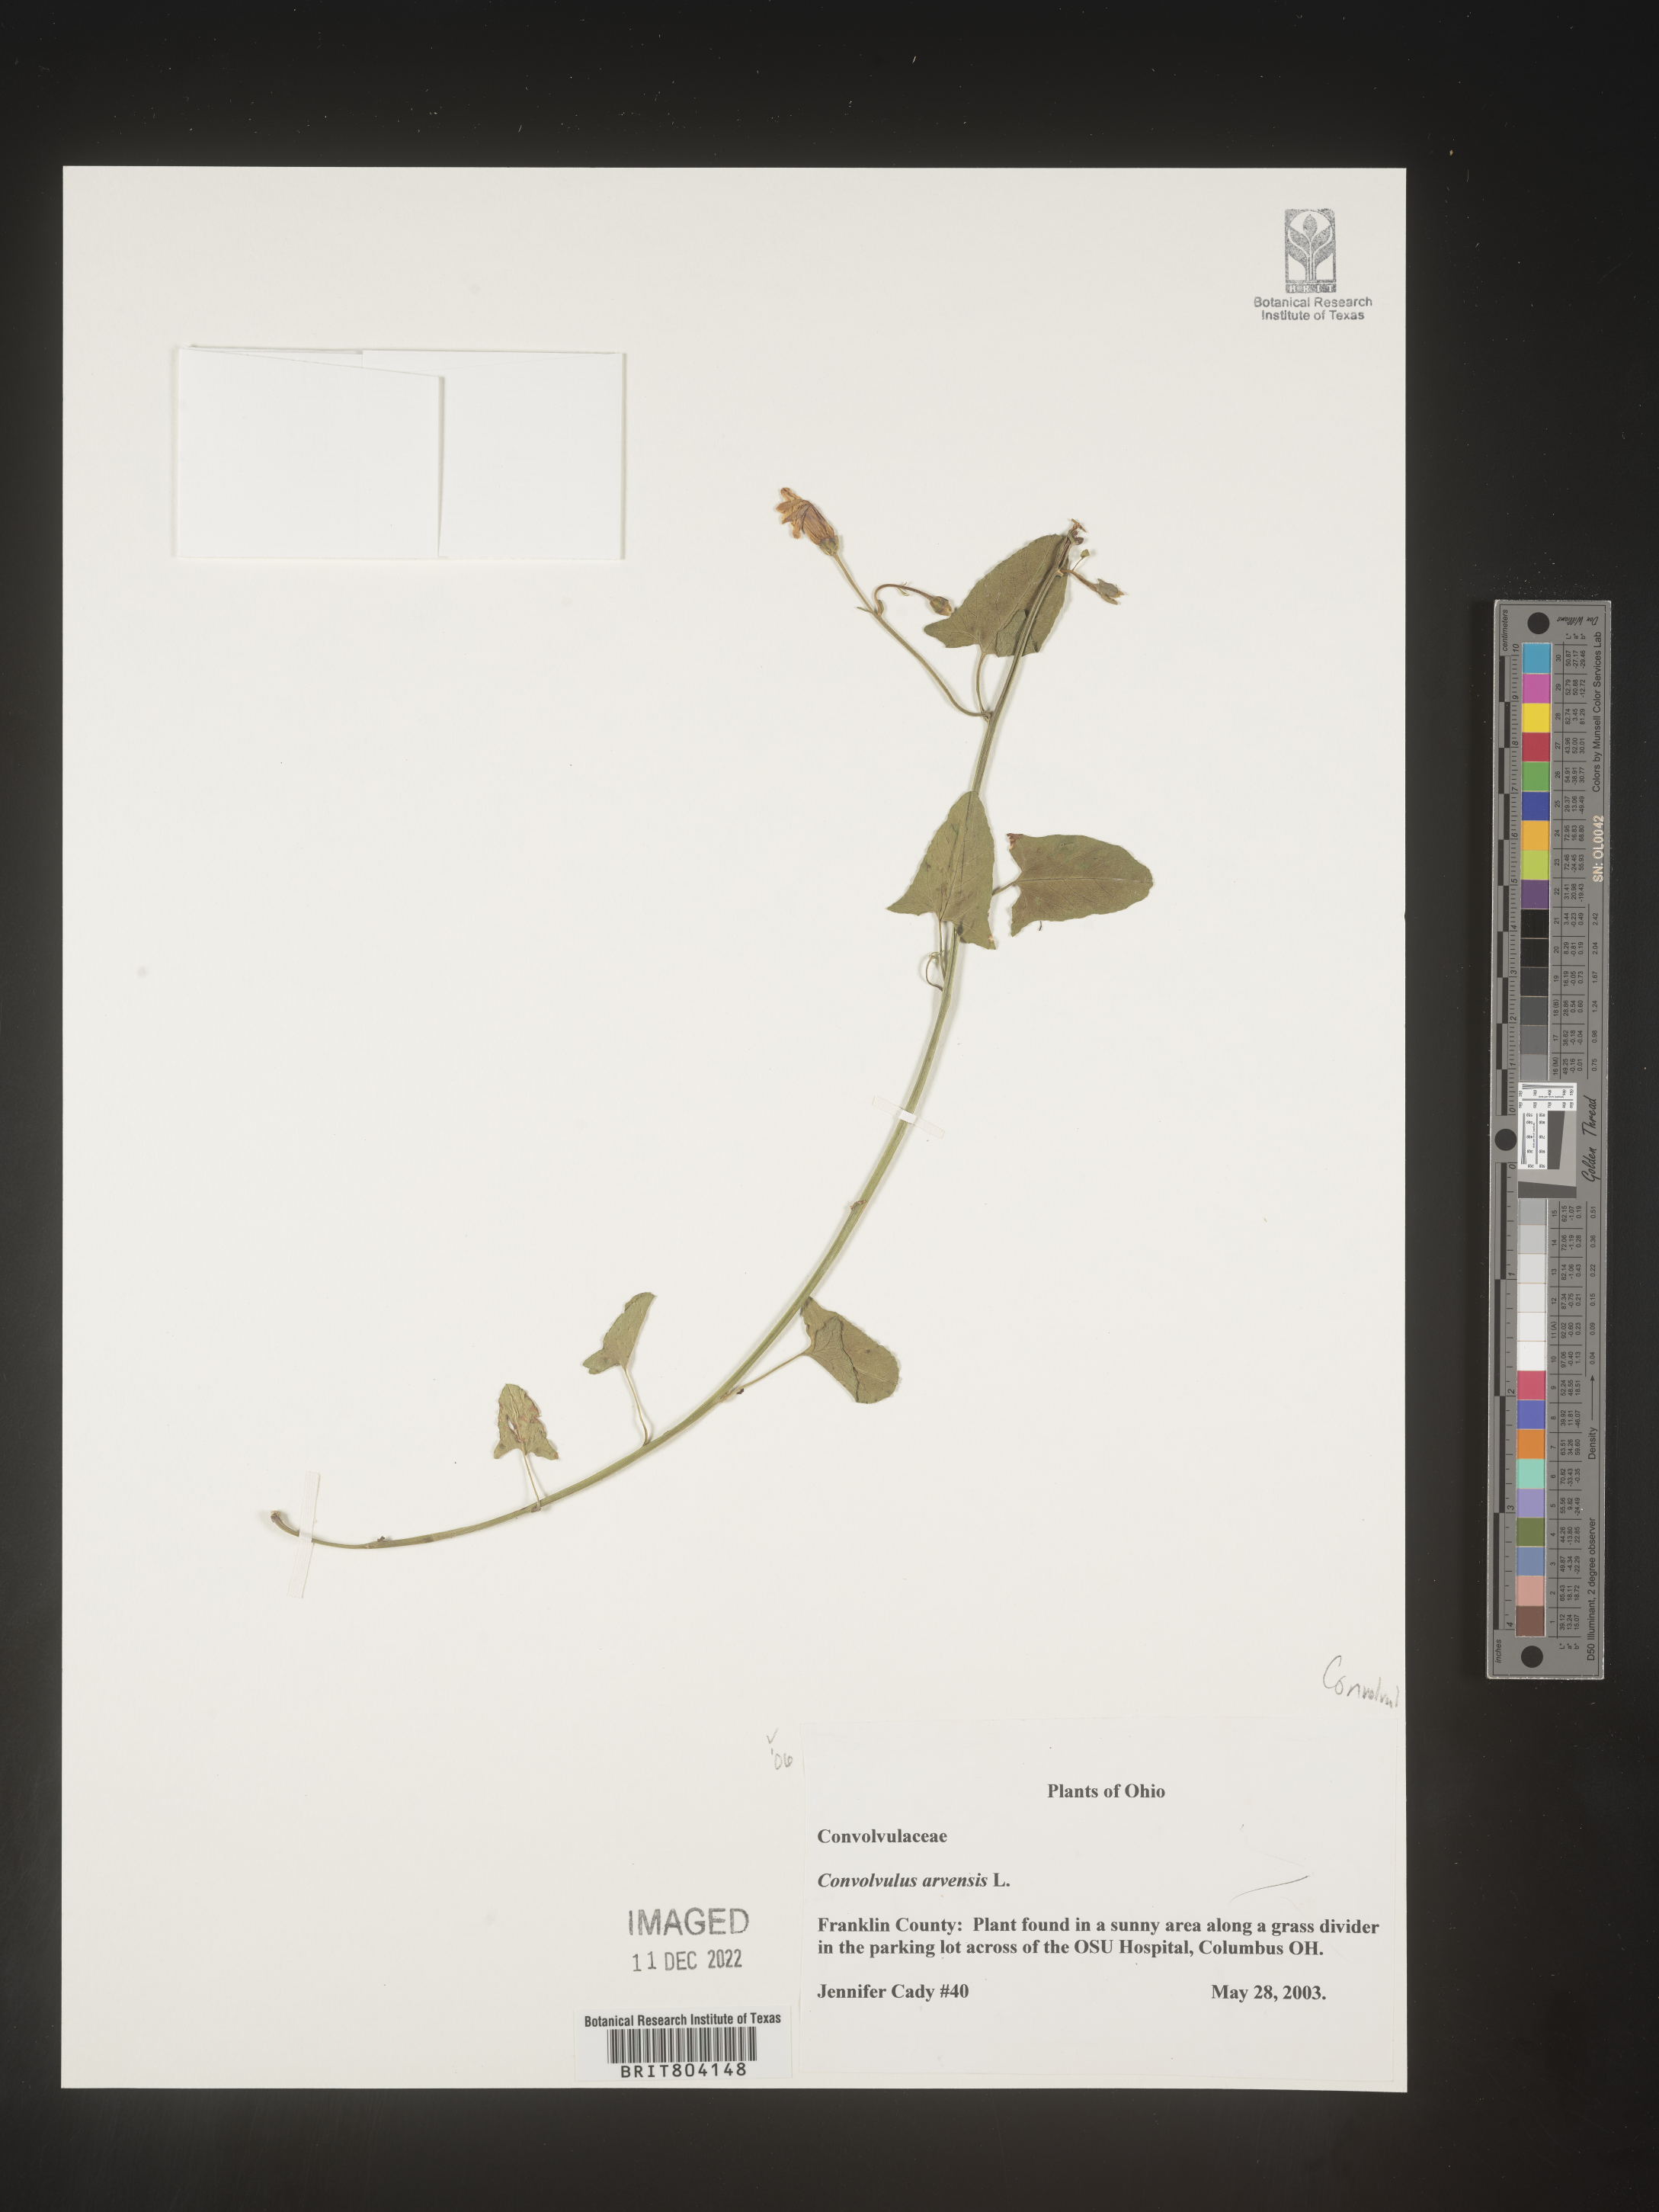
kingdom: Plantae
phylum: Tracheophyta
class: Magnoliopsida
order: Solanales
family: Convolvulaceae
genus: Convolvulus
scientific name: Convolvulus arvensis
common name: Field bindweed
